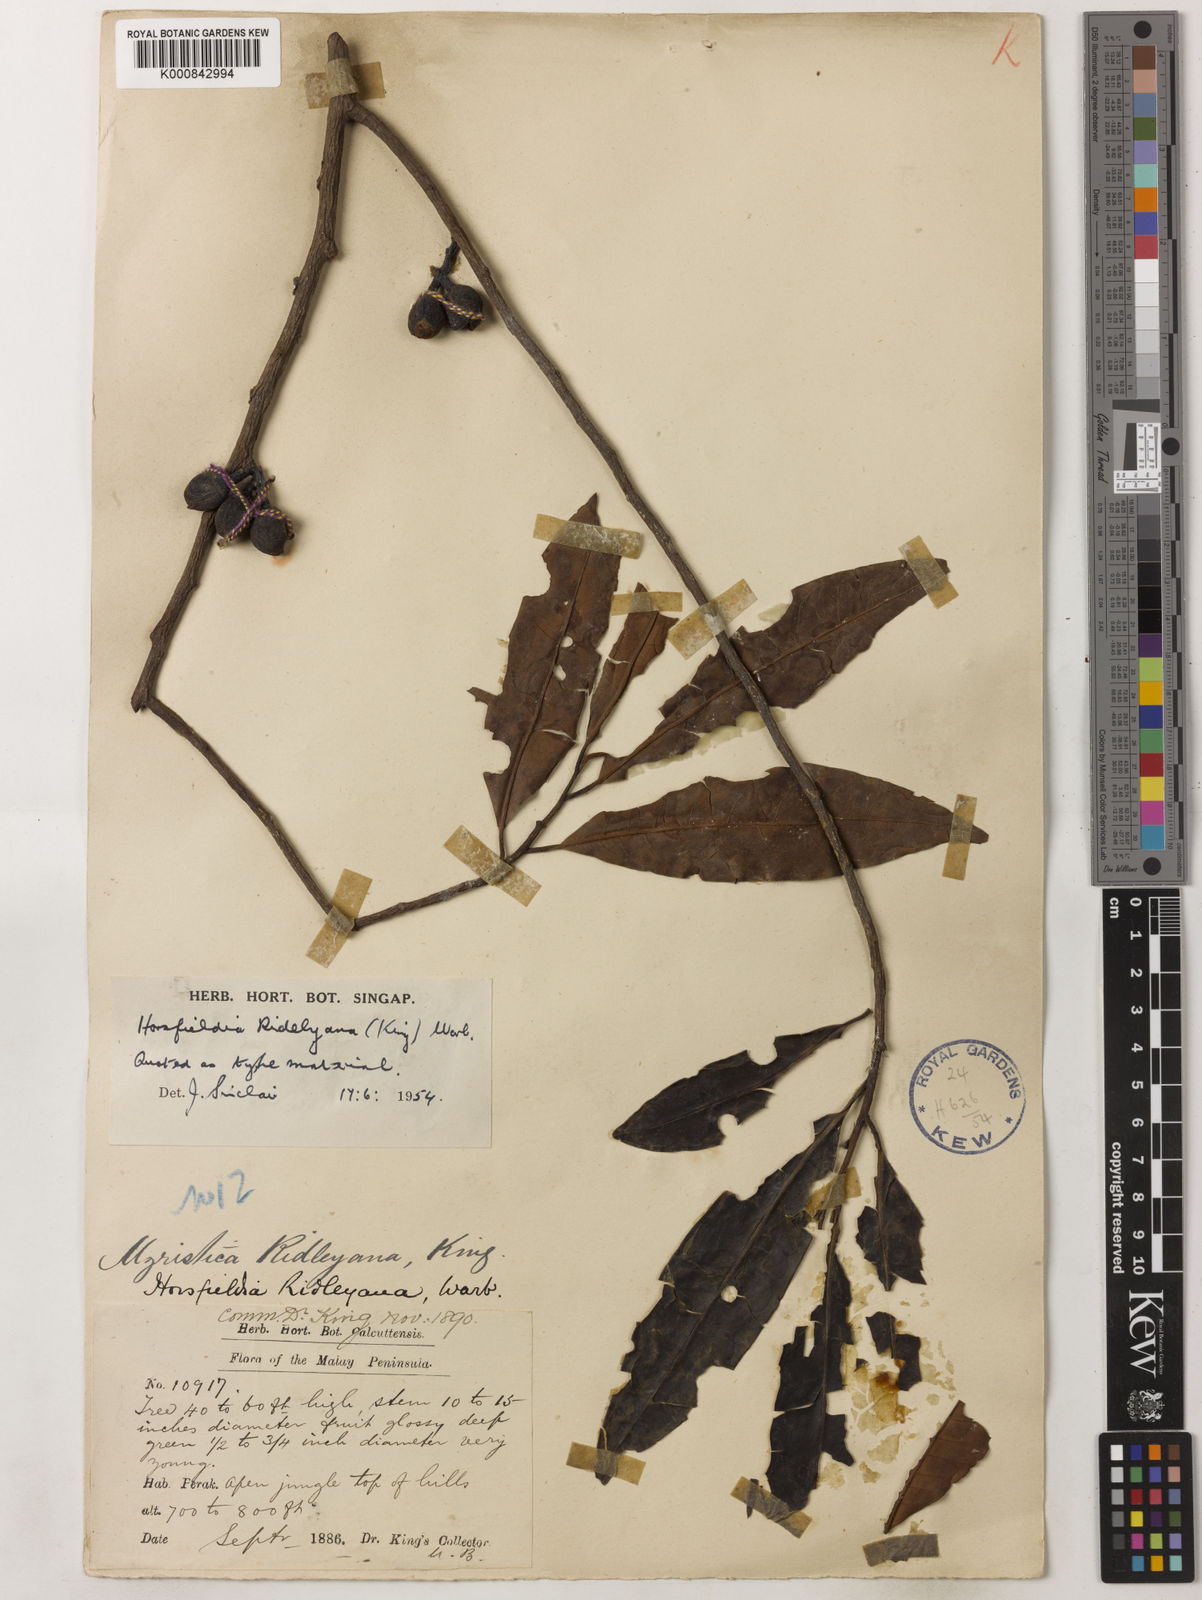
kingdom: Plantae
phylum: Tracheophyta
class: Magnoliopsida
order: Magnoliales
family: Myristicaceae
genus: Horsfieldia
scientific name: Horsfieldia ridleyana
